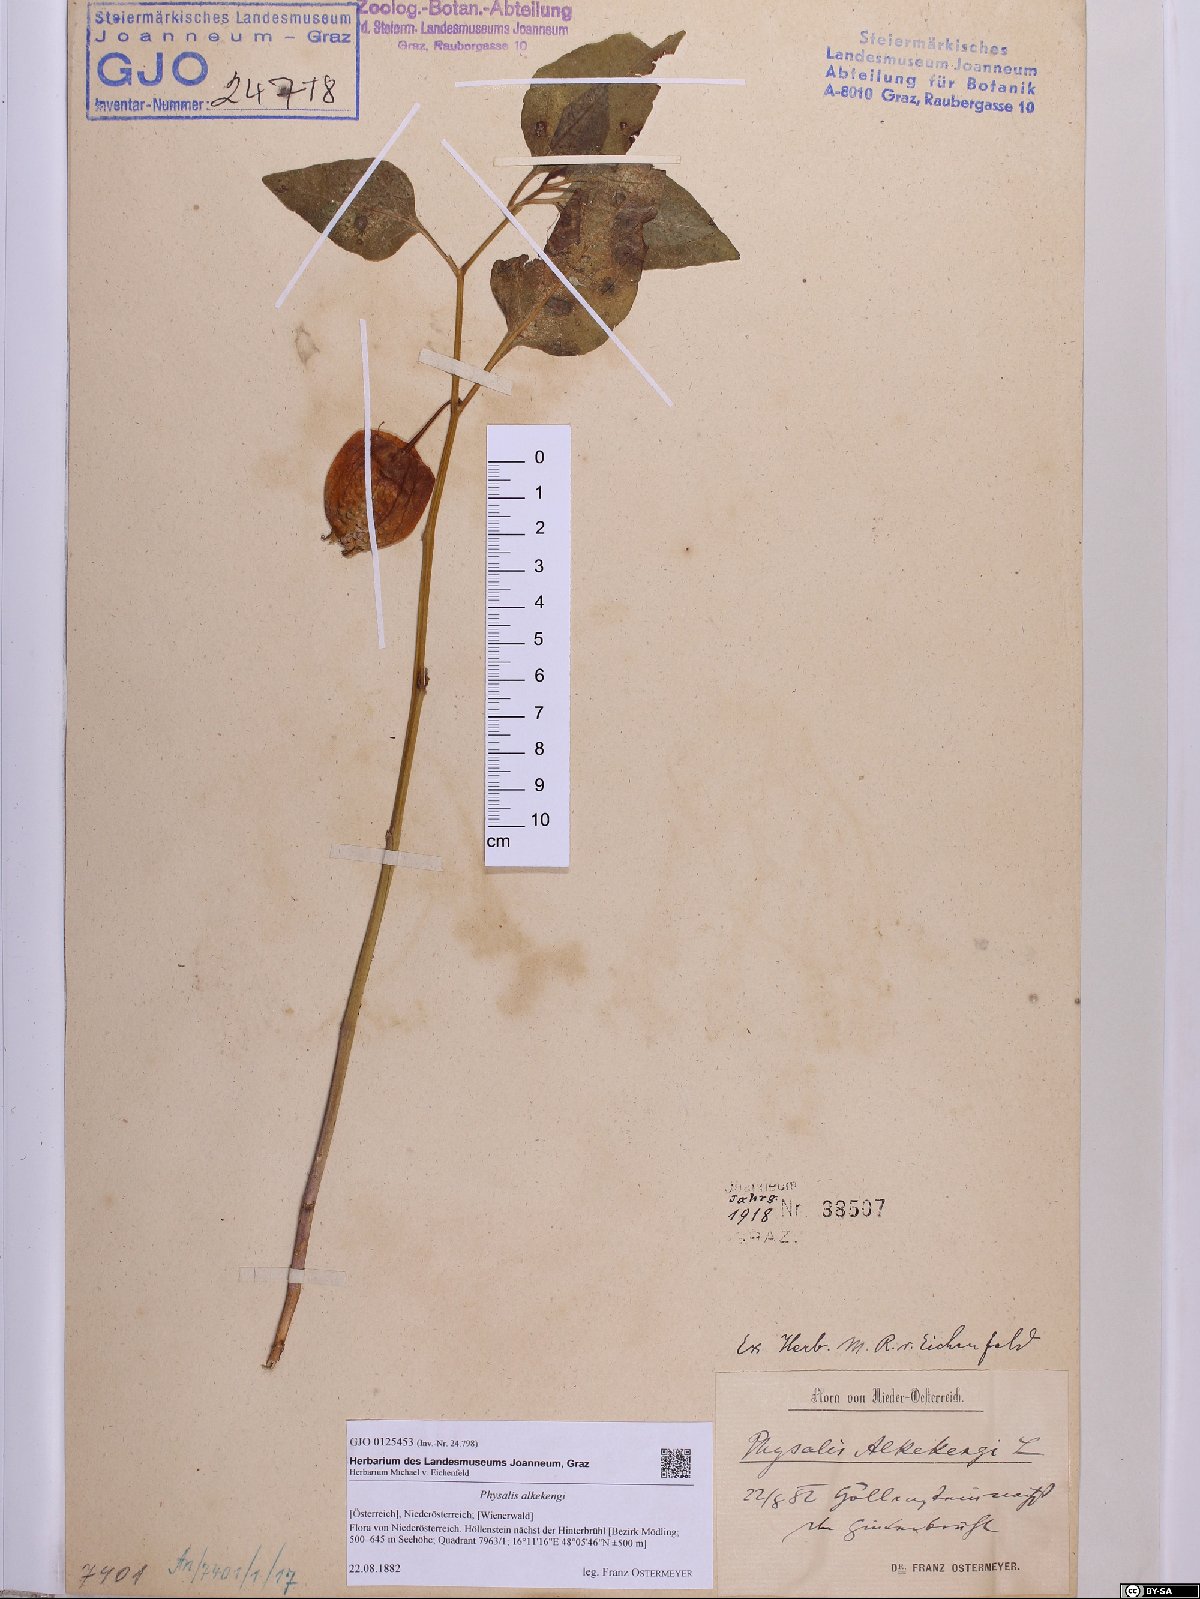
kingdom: Plantae
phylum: Tracheophyta
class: Magnoliopsida
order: Solanales
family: Solanaceae
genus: Alkekengi
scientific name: Alkekengi officinarum
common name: Japanese-lantern
